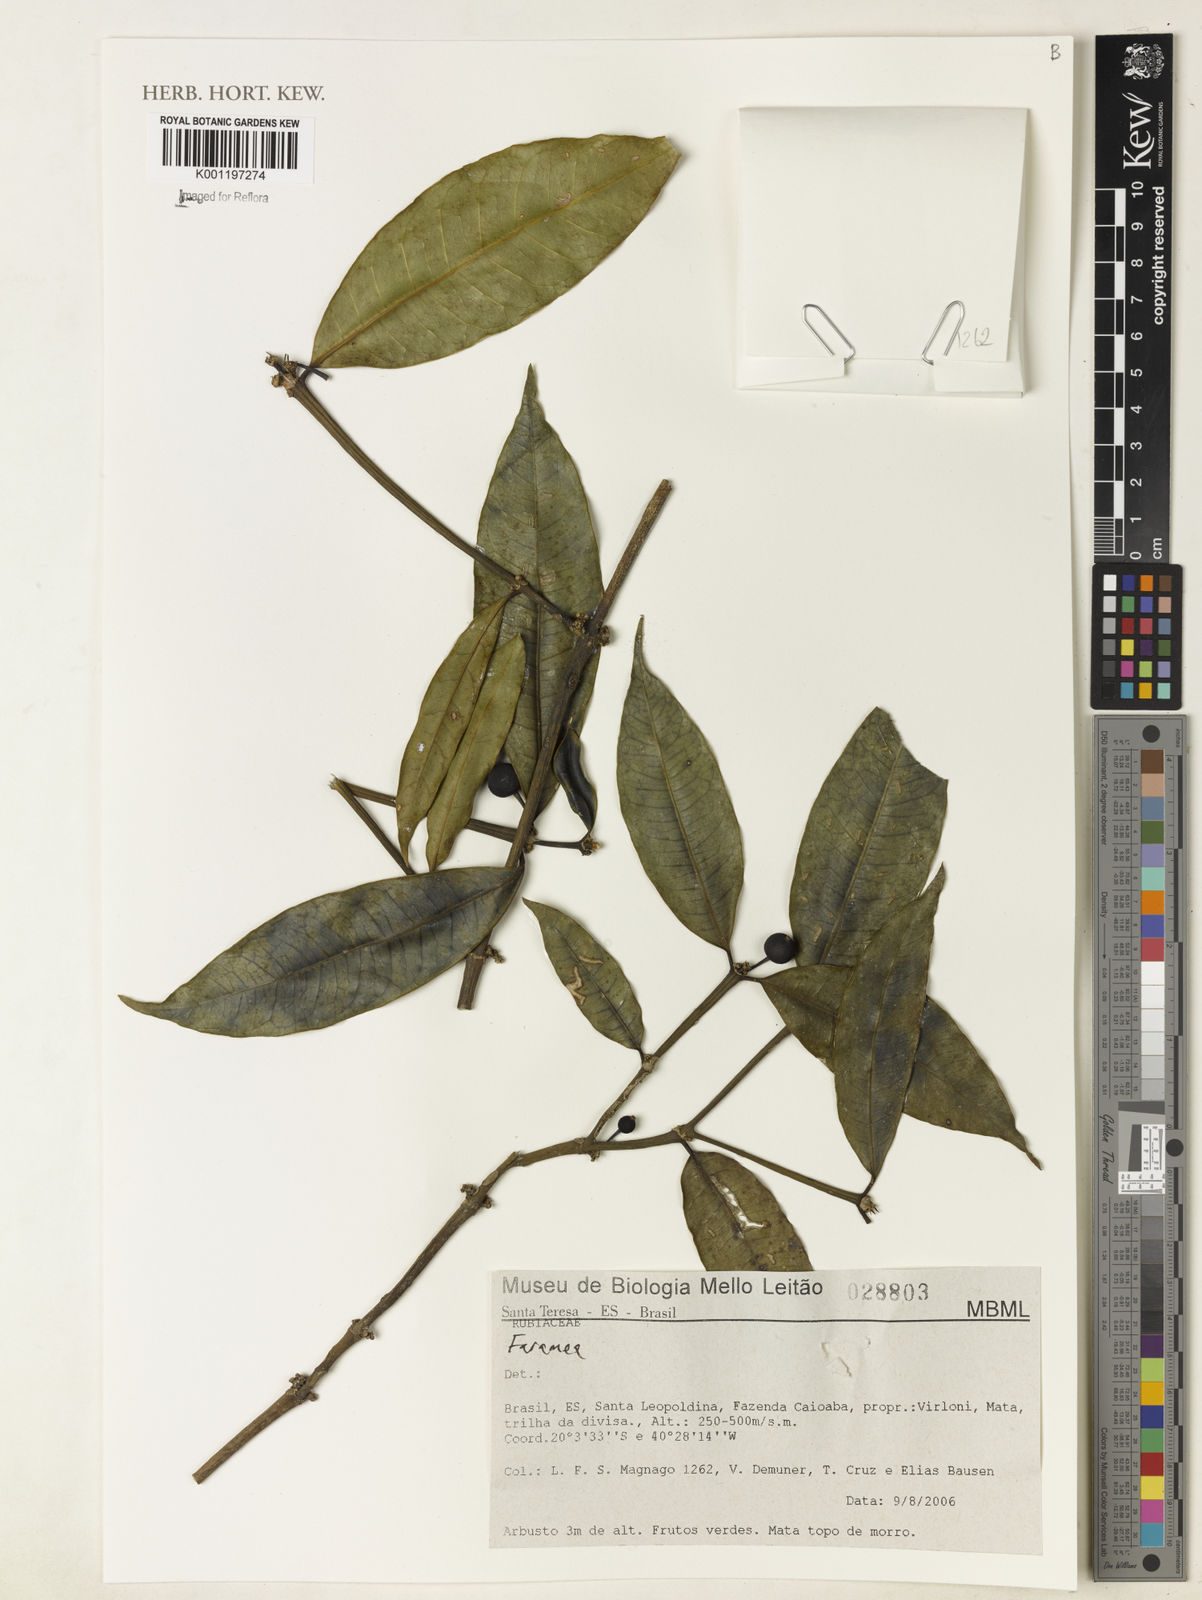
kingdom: Plantae
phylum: Tracheophyta
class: Magnoliopsida
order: Gentianales
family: Rubiaceae
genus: Faramea
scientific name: Faramea
